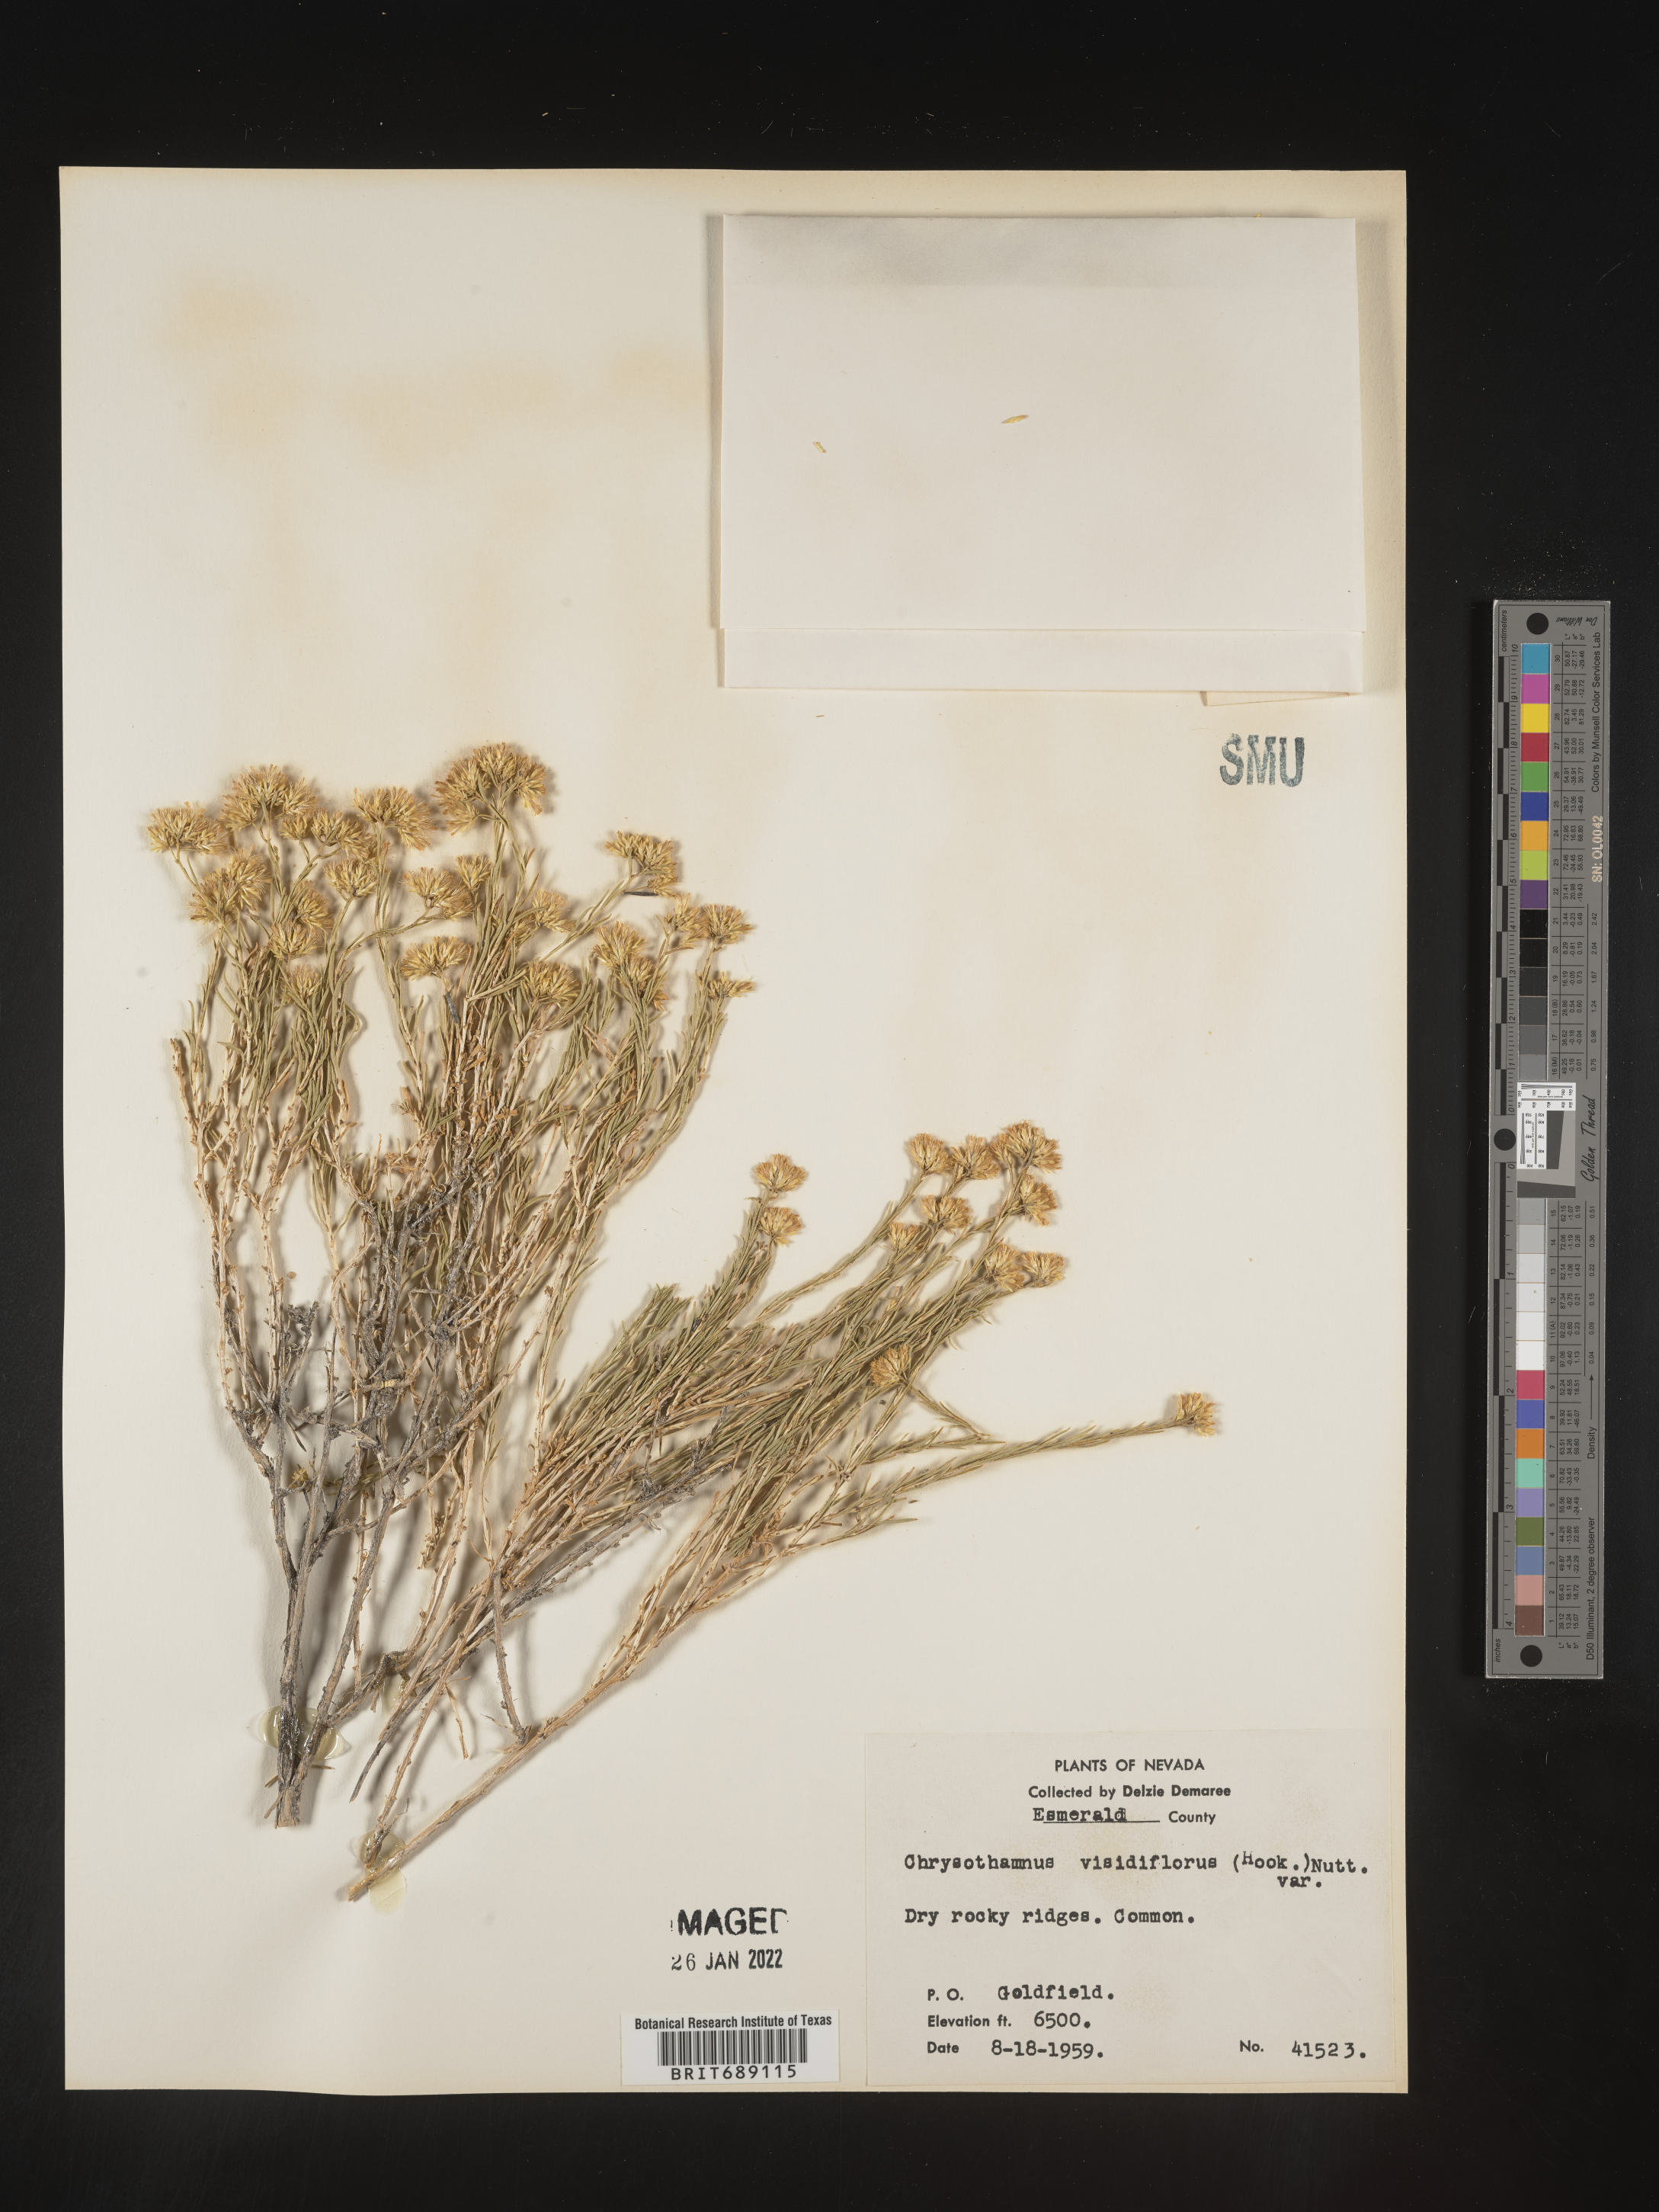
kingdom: Plantae
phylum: Tracheophyta
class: Magnoliopsida
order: Asterales
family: Asteraceae
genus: Chrysothamnus
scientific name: Chrysothamnus viscidiflorus
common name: Yellow rabbitbrush
